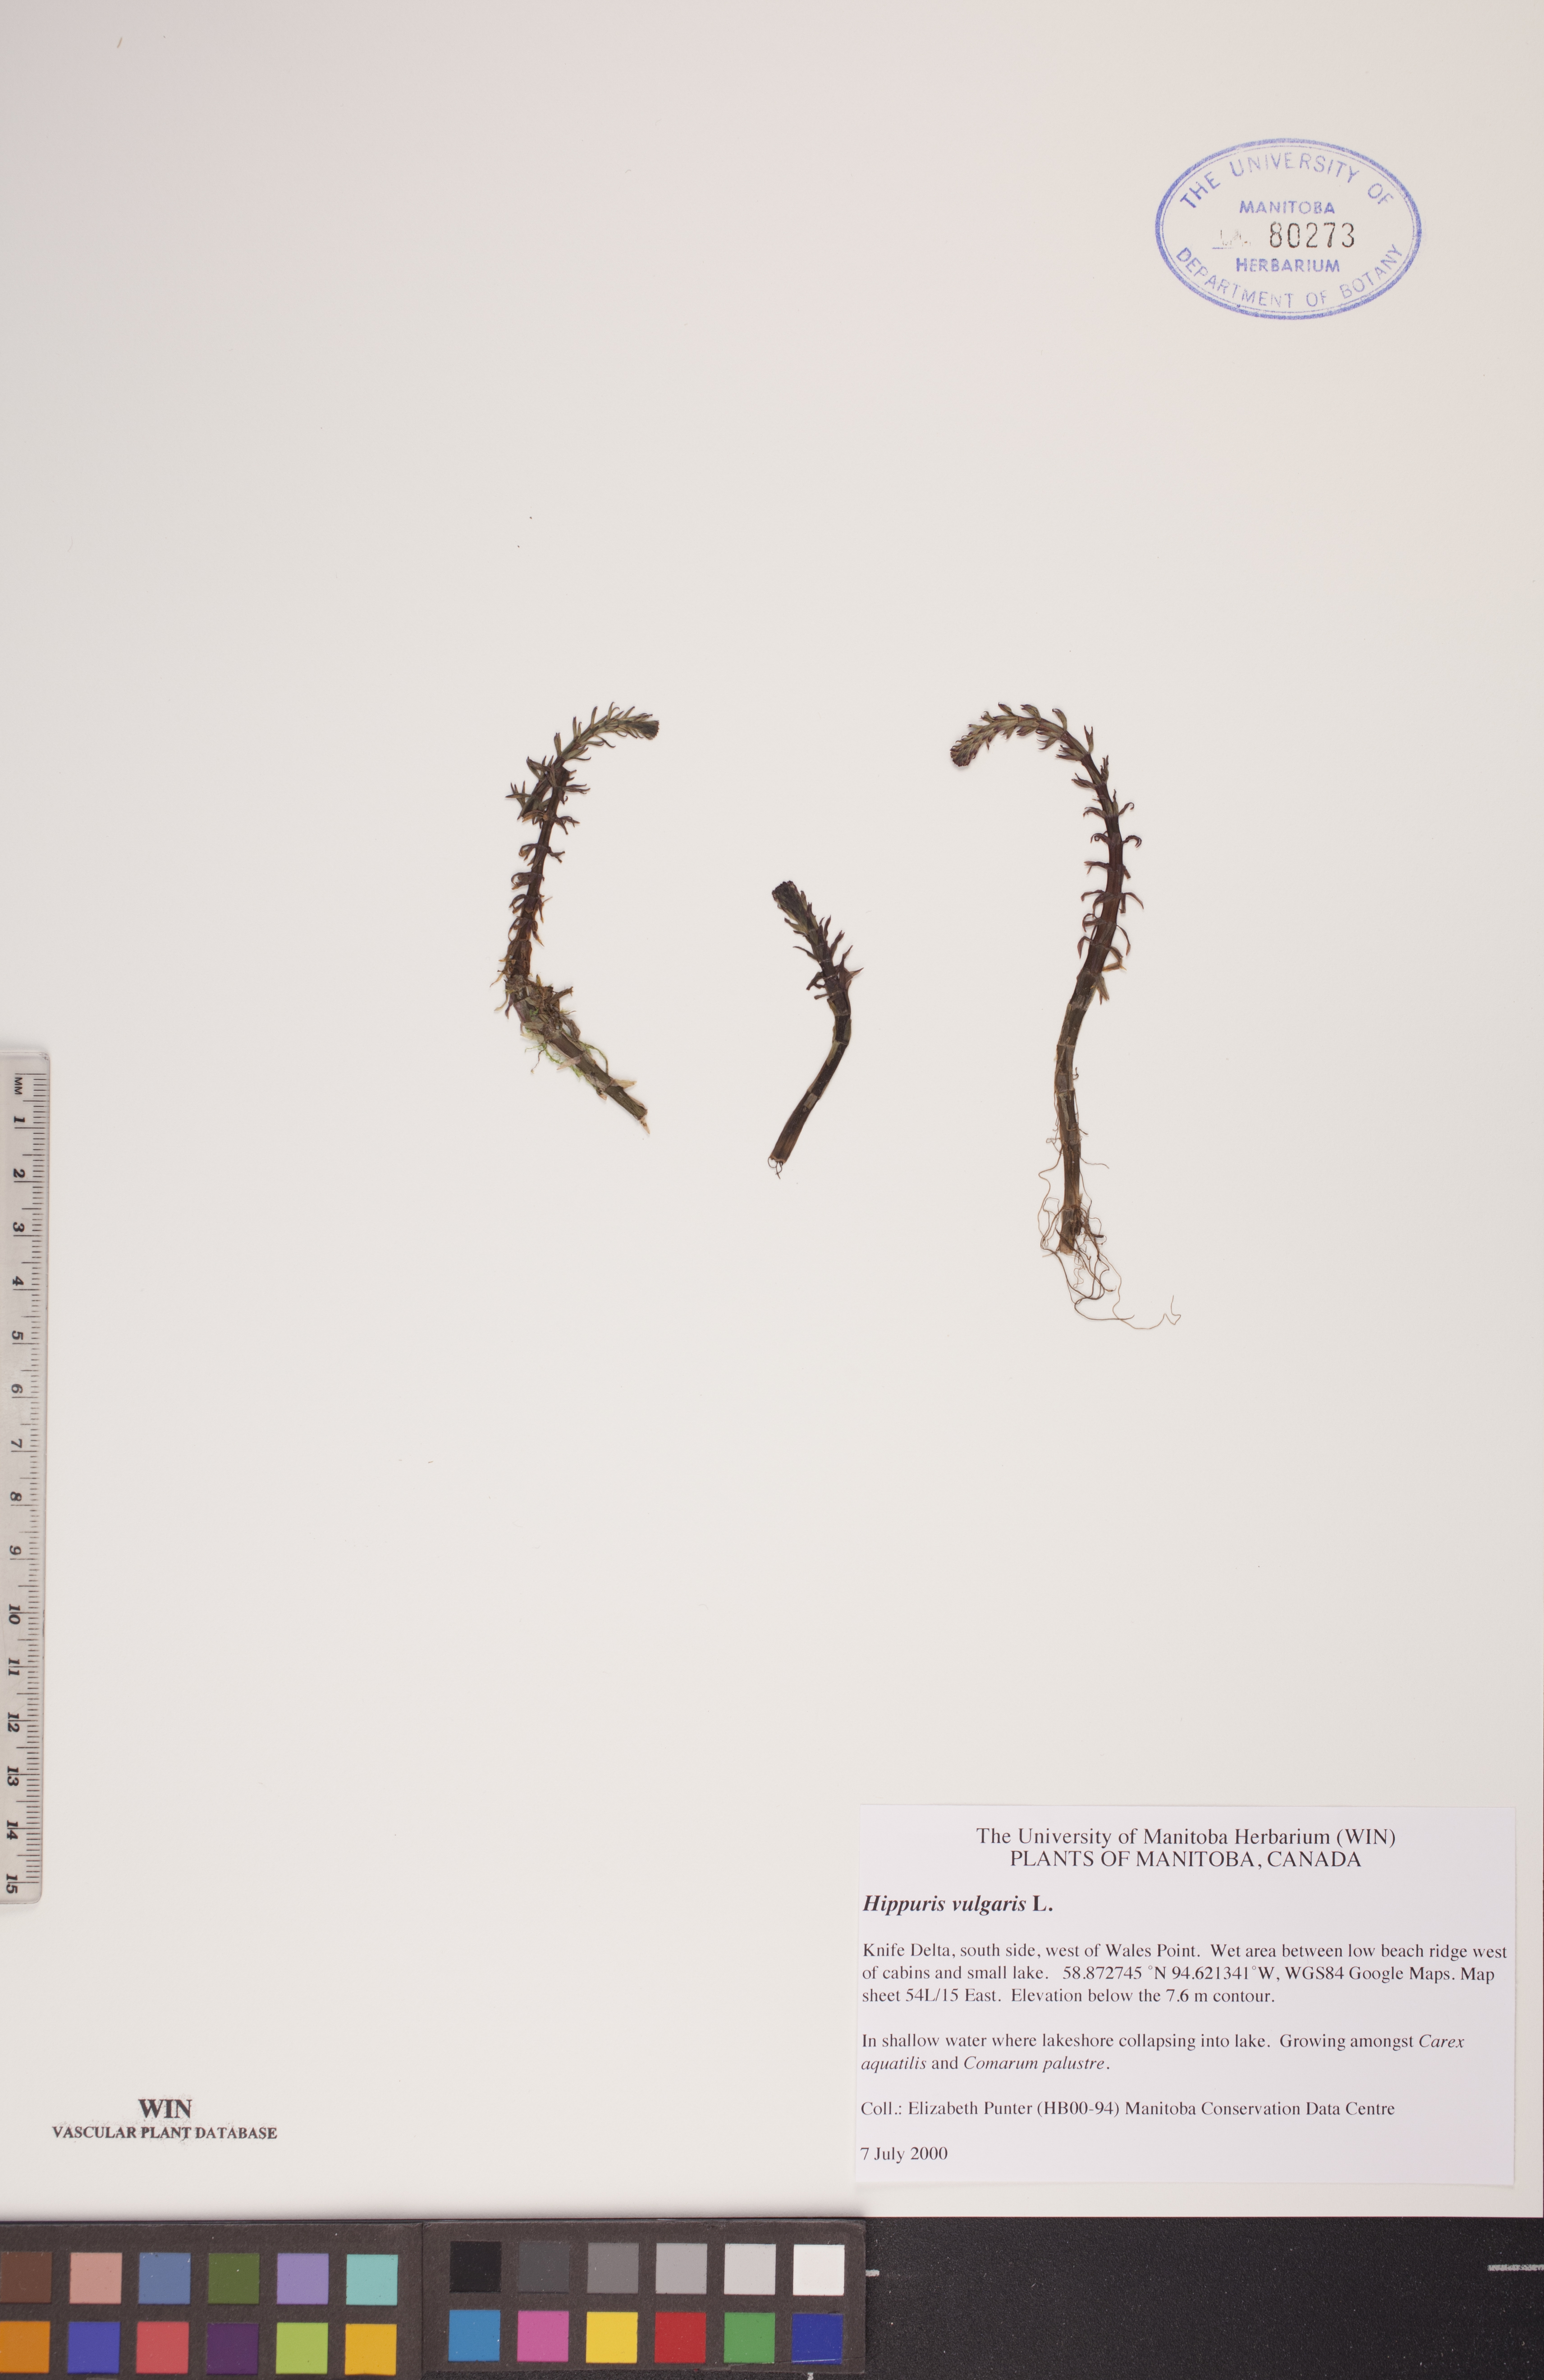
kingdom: Plantae
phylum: Tracheophyta
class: Magnoliopsida
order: Lamiales
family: Plantaginaceae
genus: Hippuris
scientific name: Hippuris vulgaris
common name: Mare's-tail
